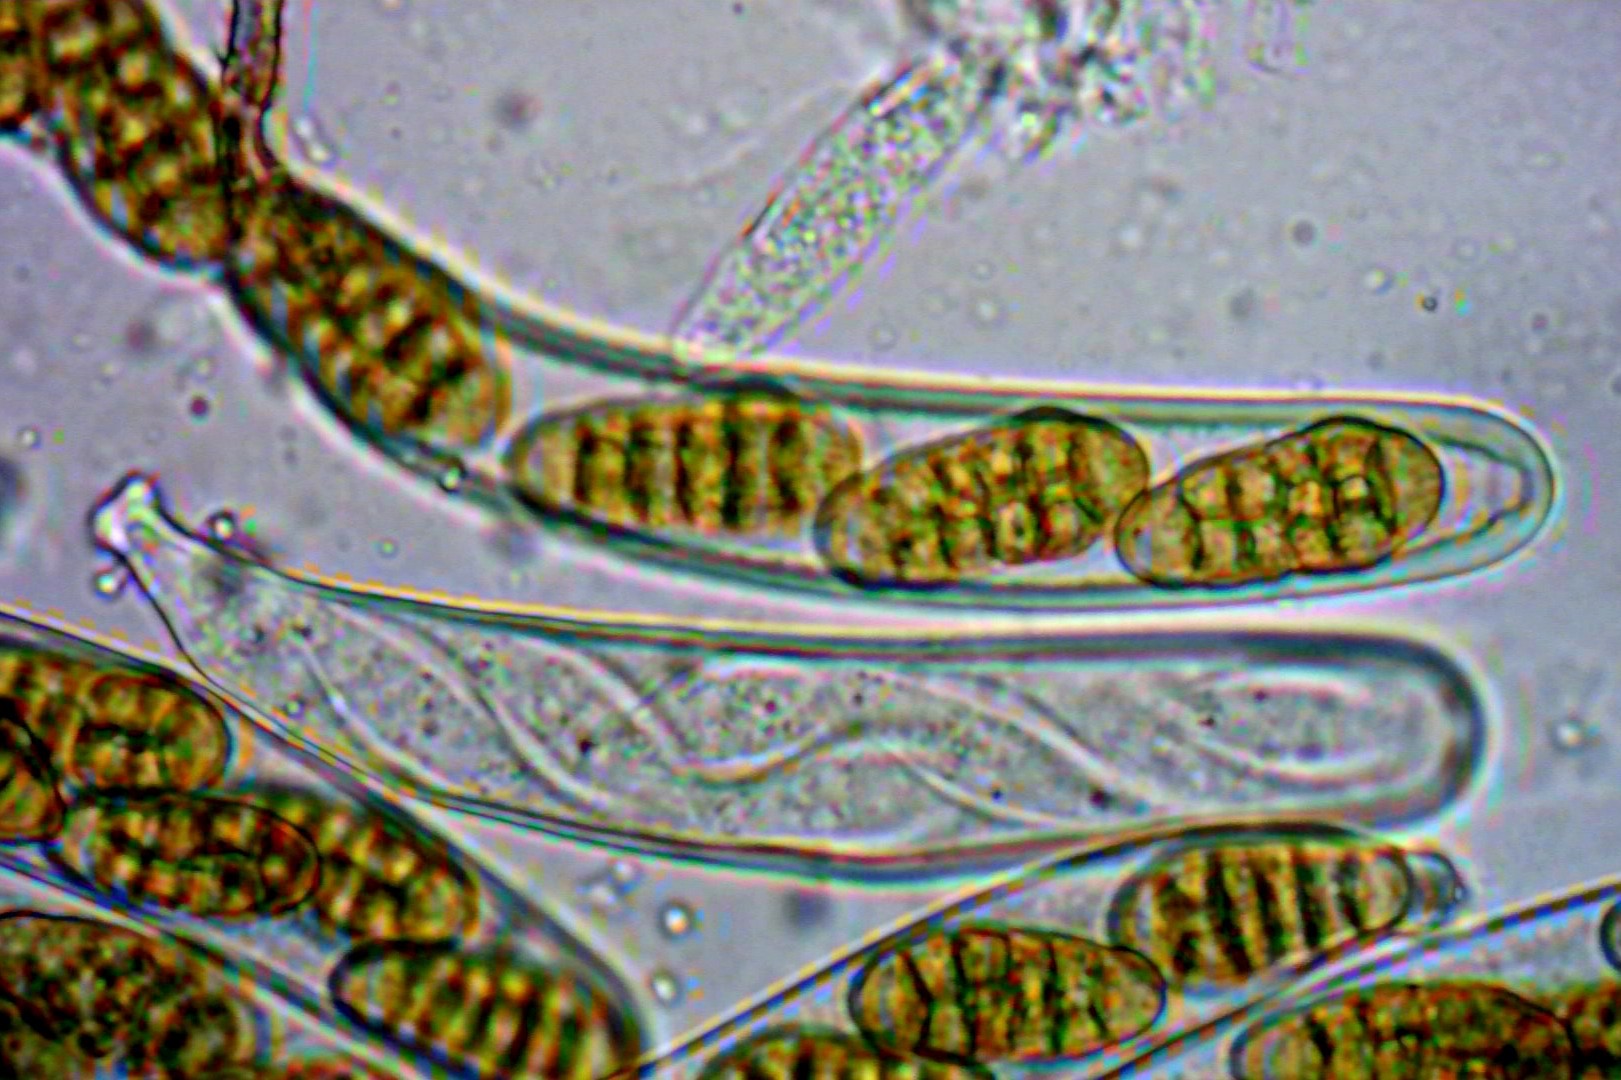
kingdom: Fungi
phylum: Ascomycota
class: Dothideomycetes
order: Pleosporales
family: Pleosporaceae
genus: Stemphylium
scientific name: Stemphylium vesicarium
